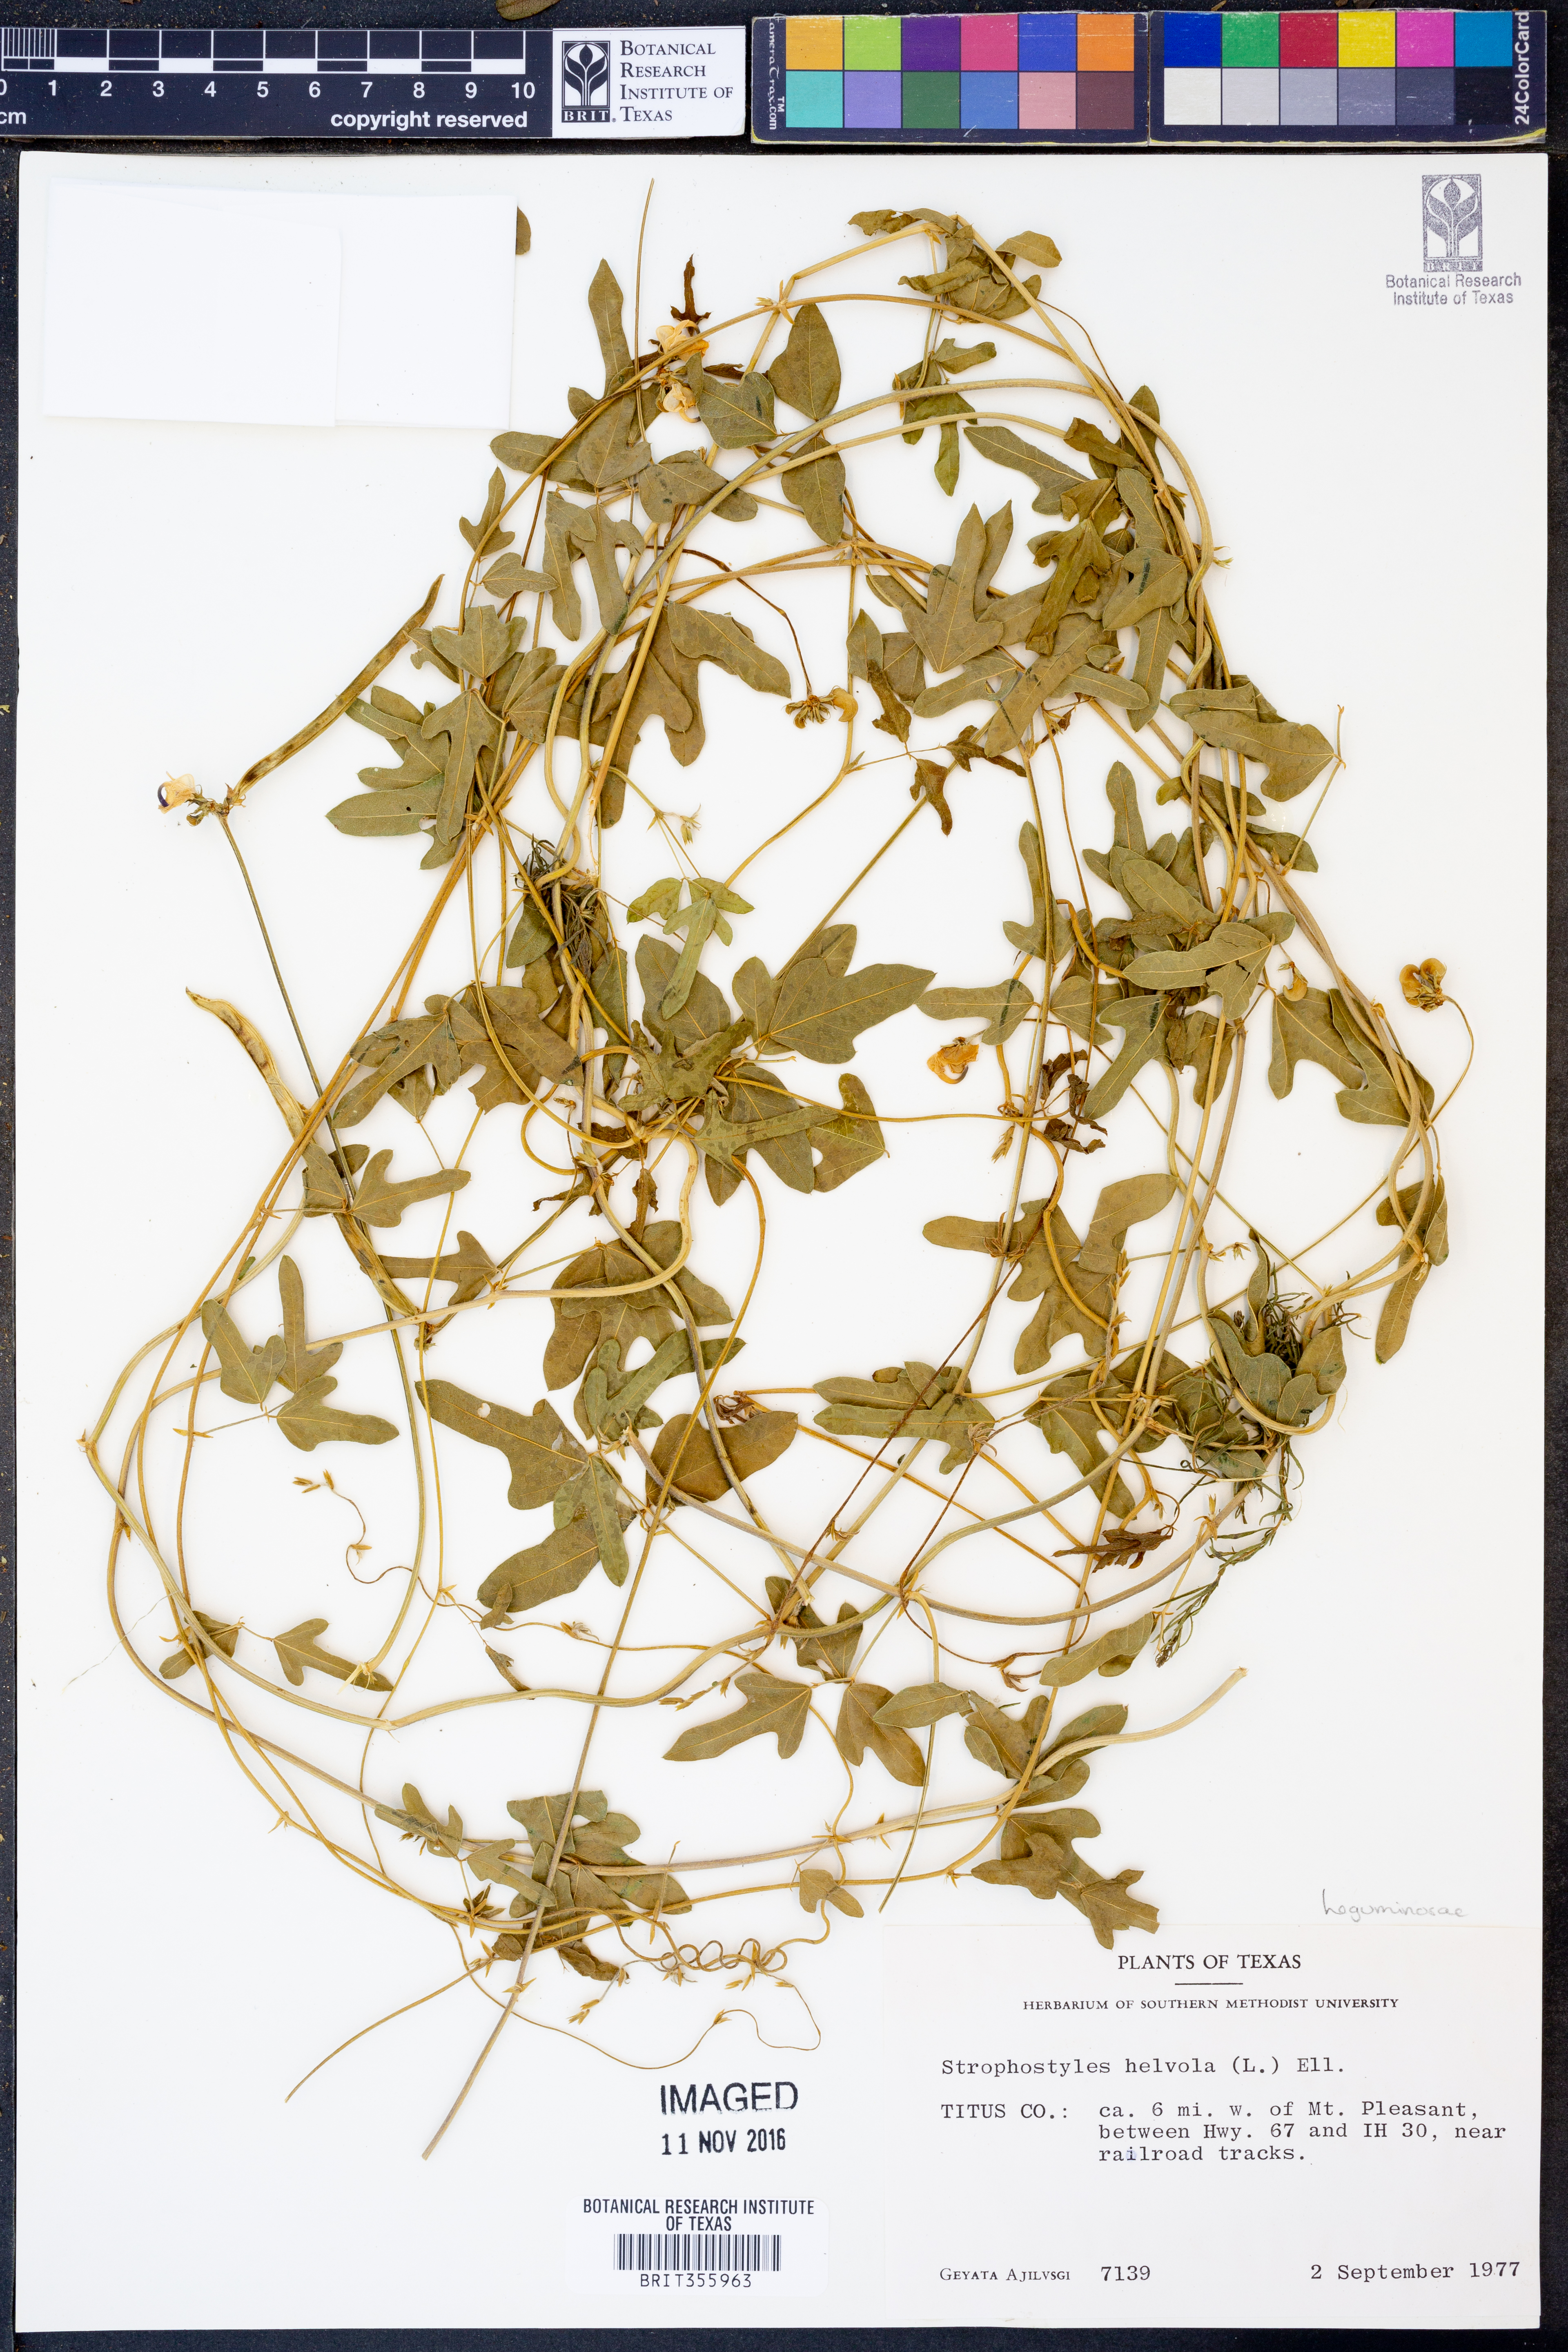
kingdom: Plantae
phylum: Tracheophyta
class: Magnoliopsida
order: Fabales
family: Fabaceae
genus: Strophostyles
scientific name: Strophostyles helvola
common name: Trailing wild bean
